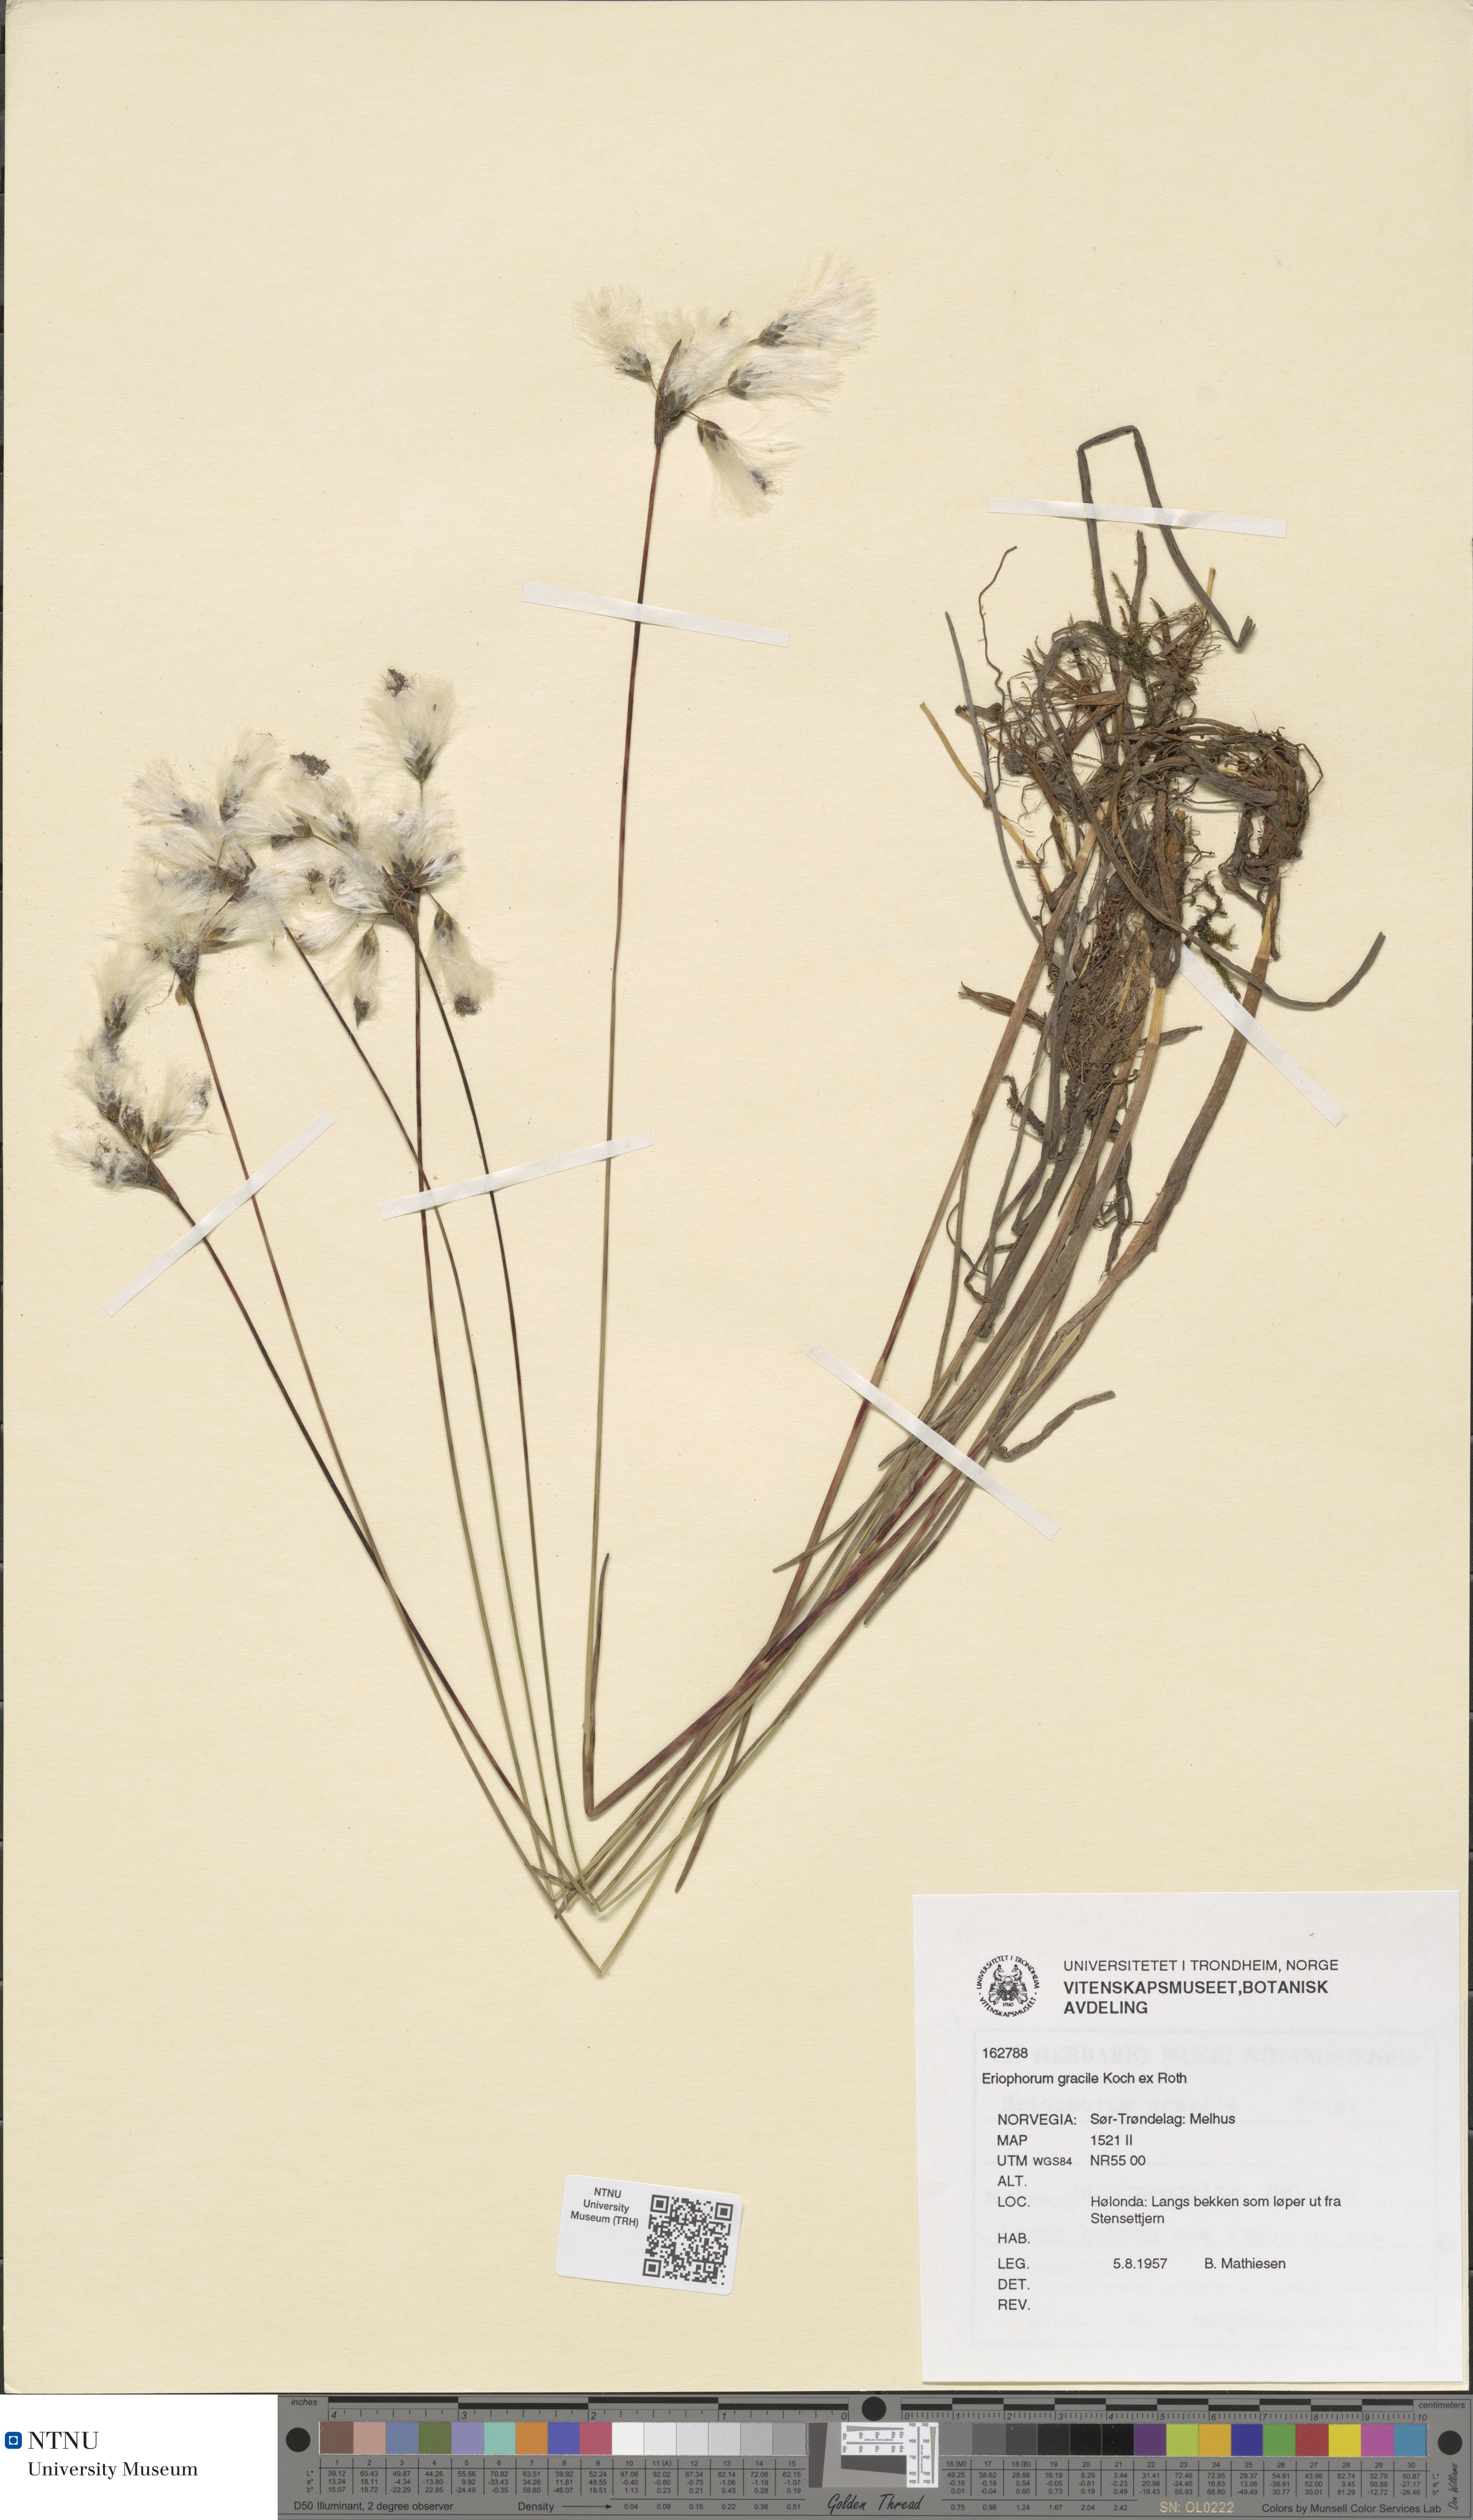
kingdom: Plantae
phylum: Tracheophyta
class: Liliopsida
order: Poales
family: Cyperaceae
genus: Eriophorum
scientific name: Eriophorum gracile
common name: Slender cottongrass
